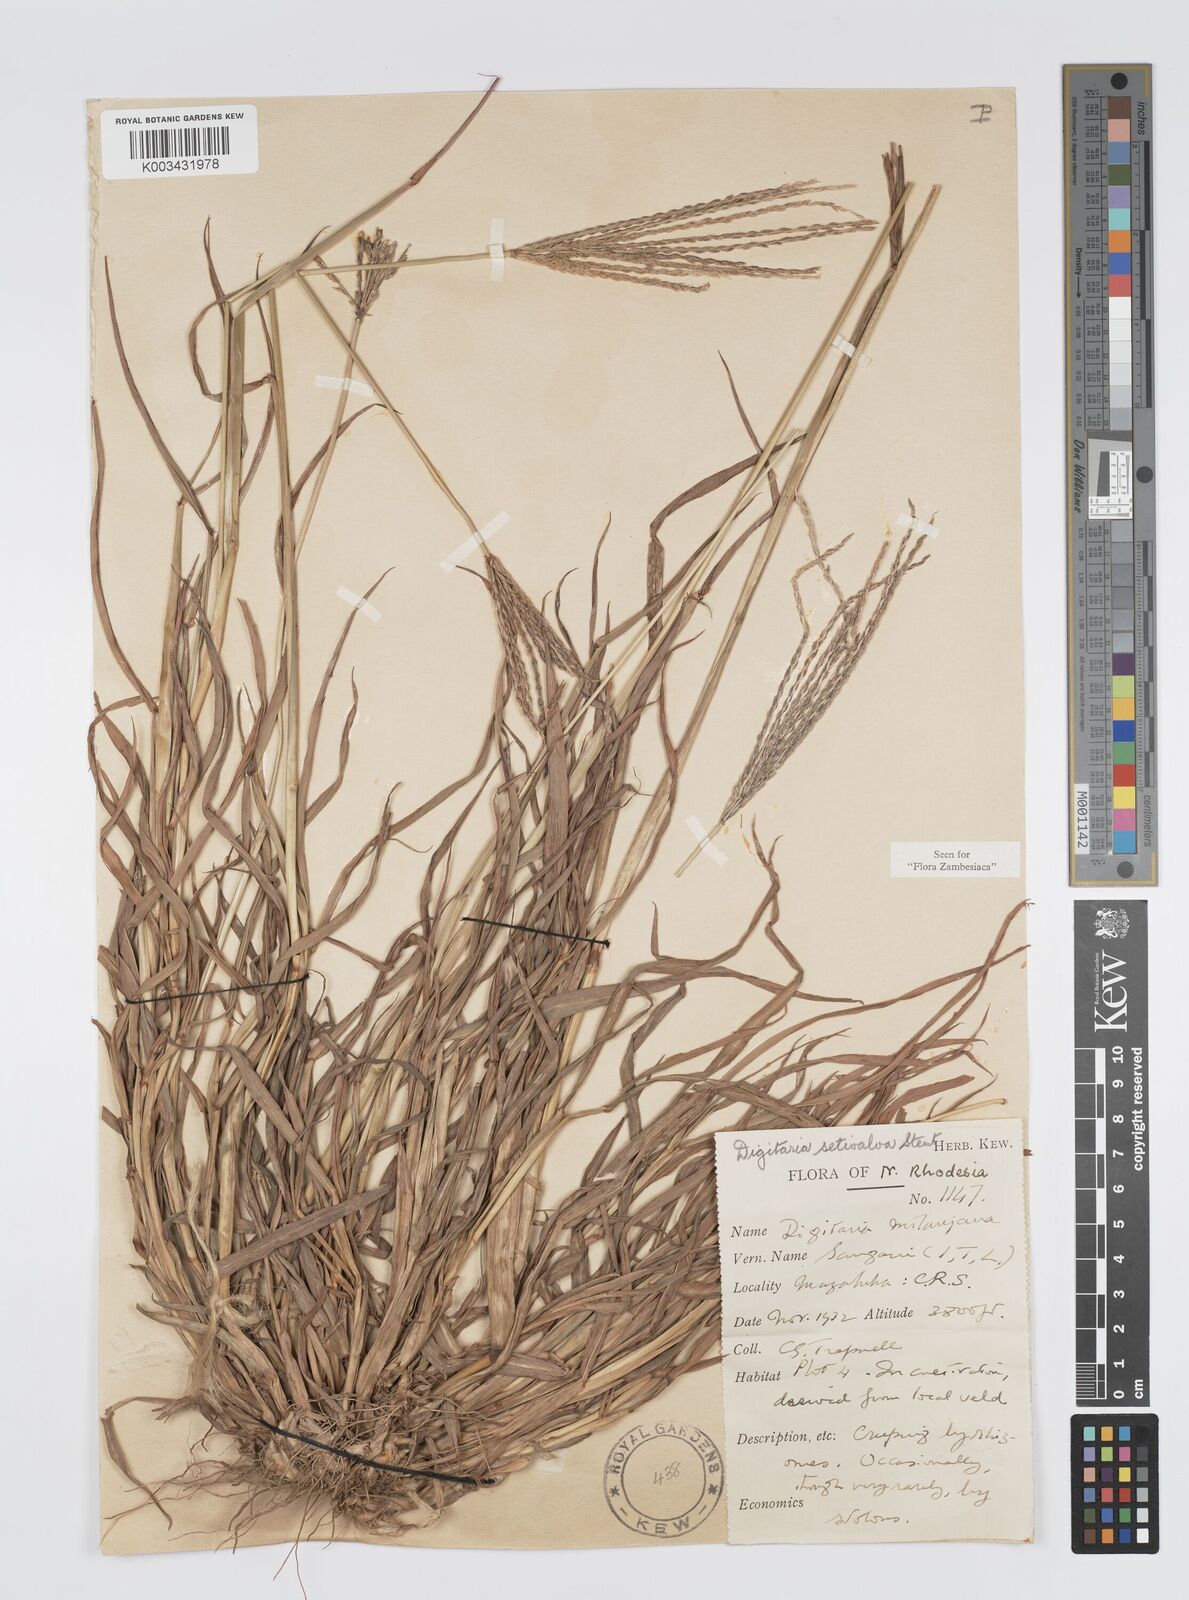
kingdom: Plantae
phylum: Tracheophyta
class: Liliopsida
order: Poales
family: Poaceae
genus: Digitaria
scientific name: Digitaria milanjiana
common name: Madagascar crabgrass
